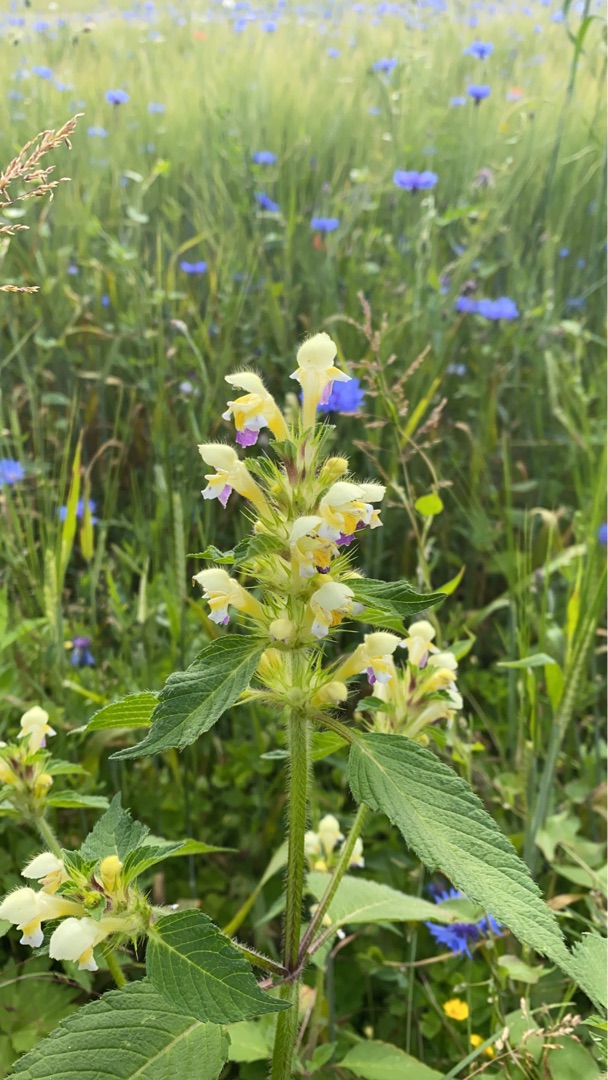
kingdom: Plantae
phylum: Tracheophyta
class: Magnoliopsida
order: Lamiales
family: Lamiaceae
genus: Galeopsis
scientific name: Galeopsis speciosa
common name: Hamp-hanekro
